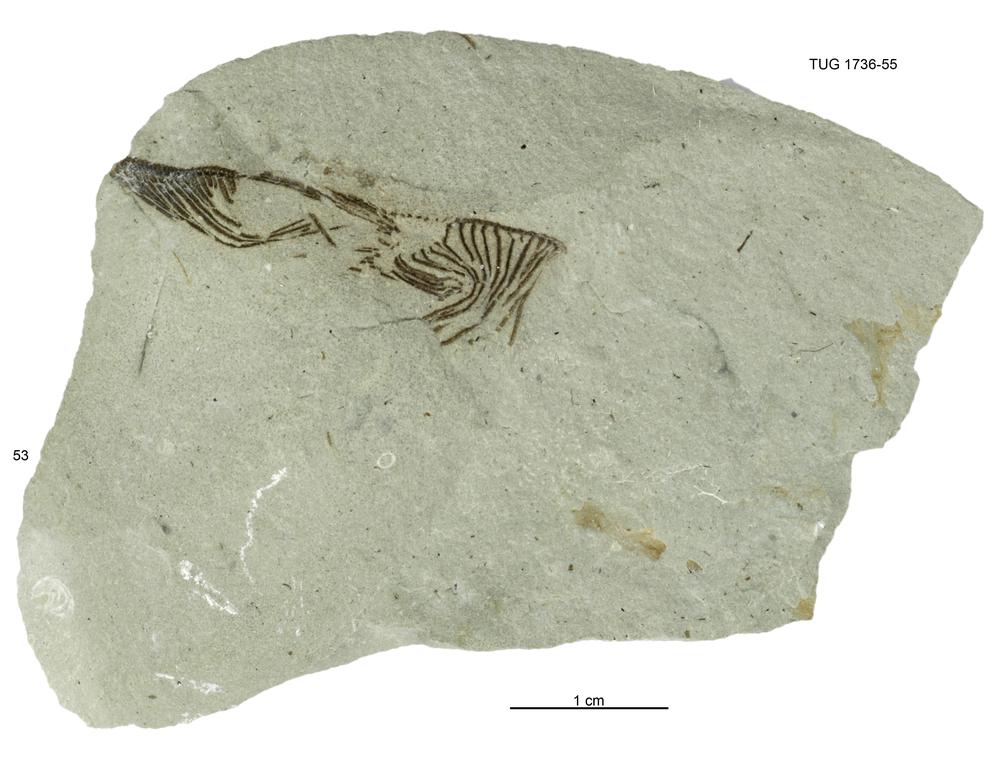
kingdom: Animalia
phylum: Echinodermata
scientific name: Echinodermata
